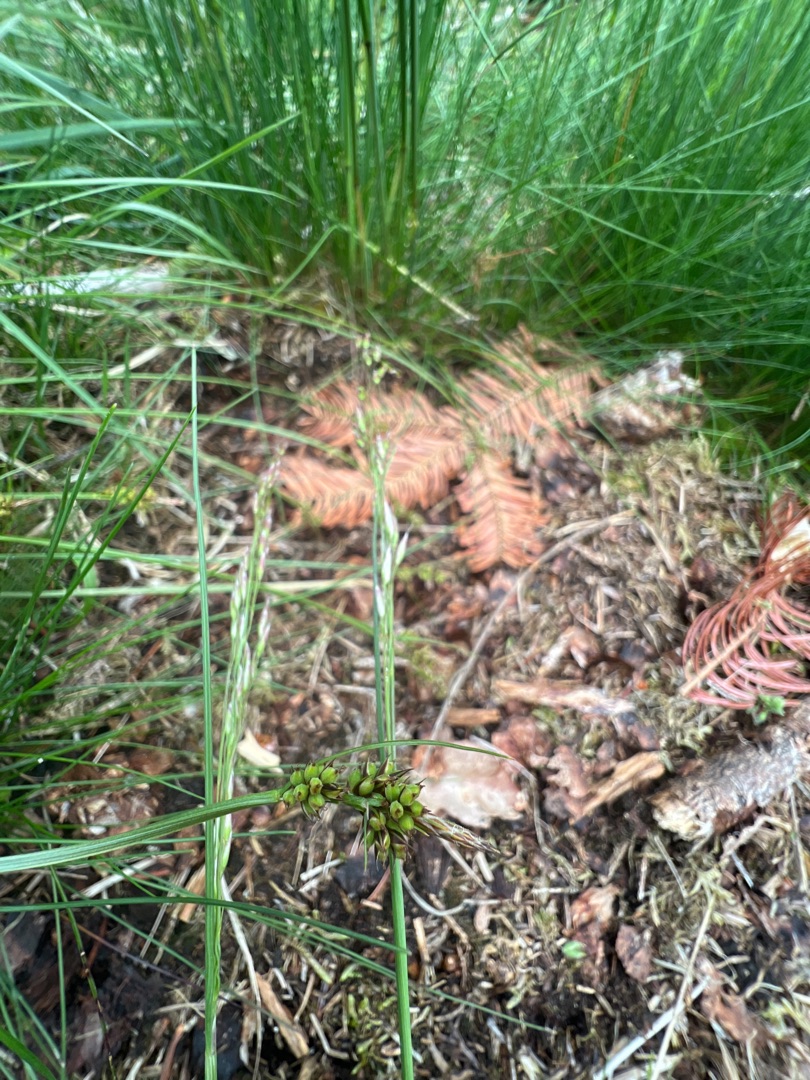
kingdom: Plantae
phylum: Tracheophyta
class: Liliopsida
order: Poales
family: Cyperaceae
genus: Carex
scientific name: Carex pilulifera
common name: Pille-star
